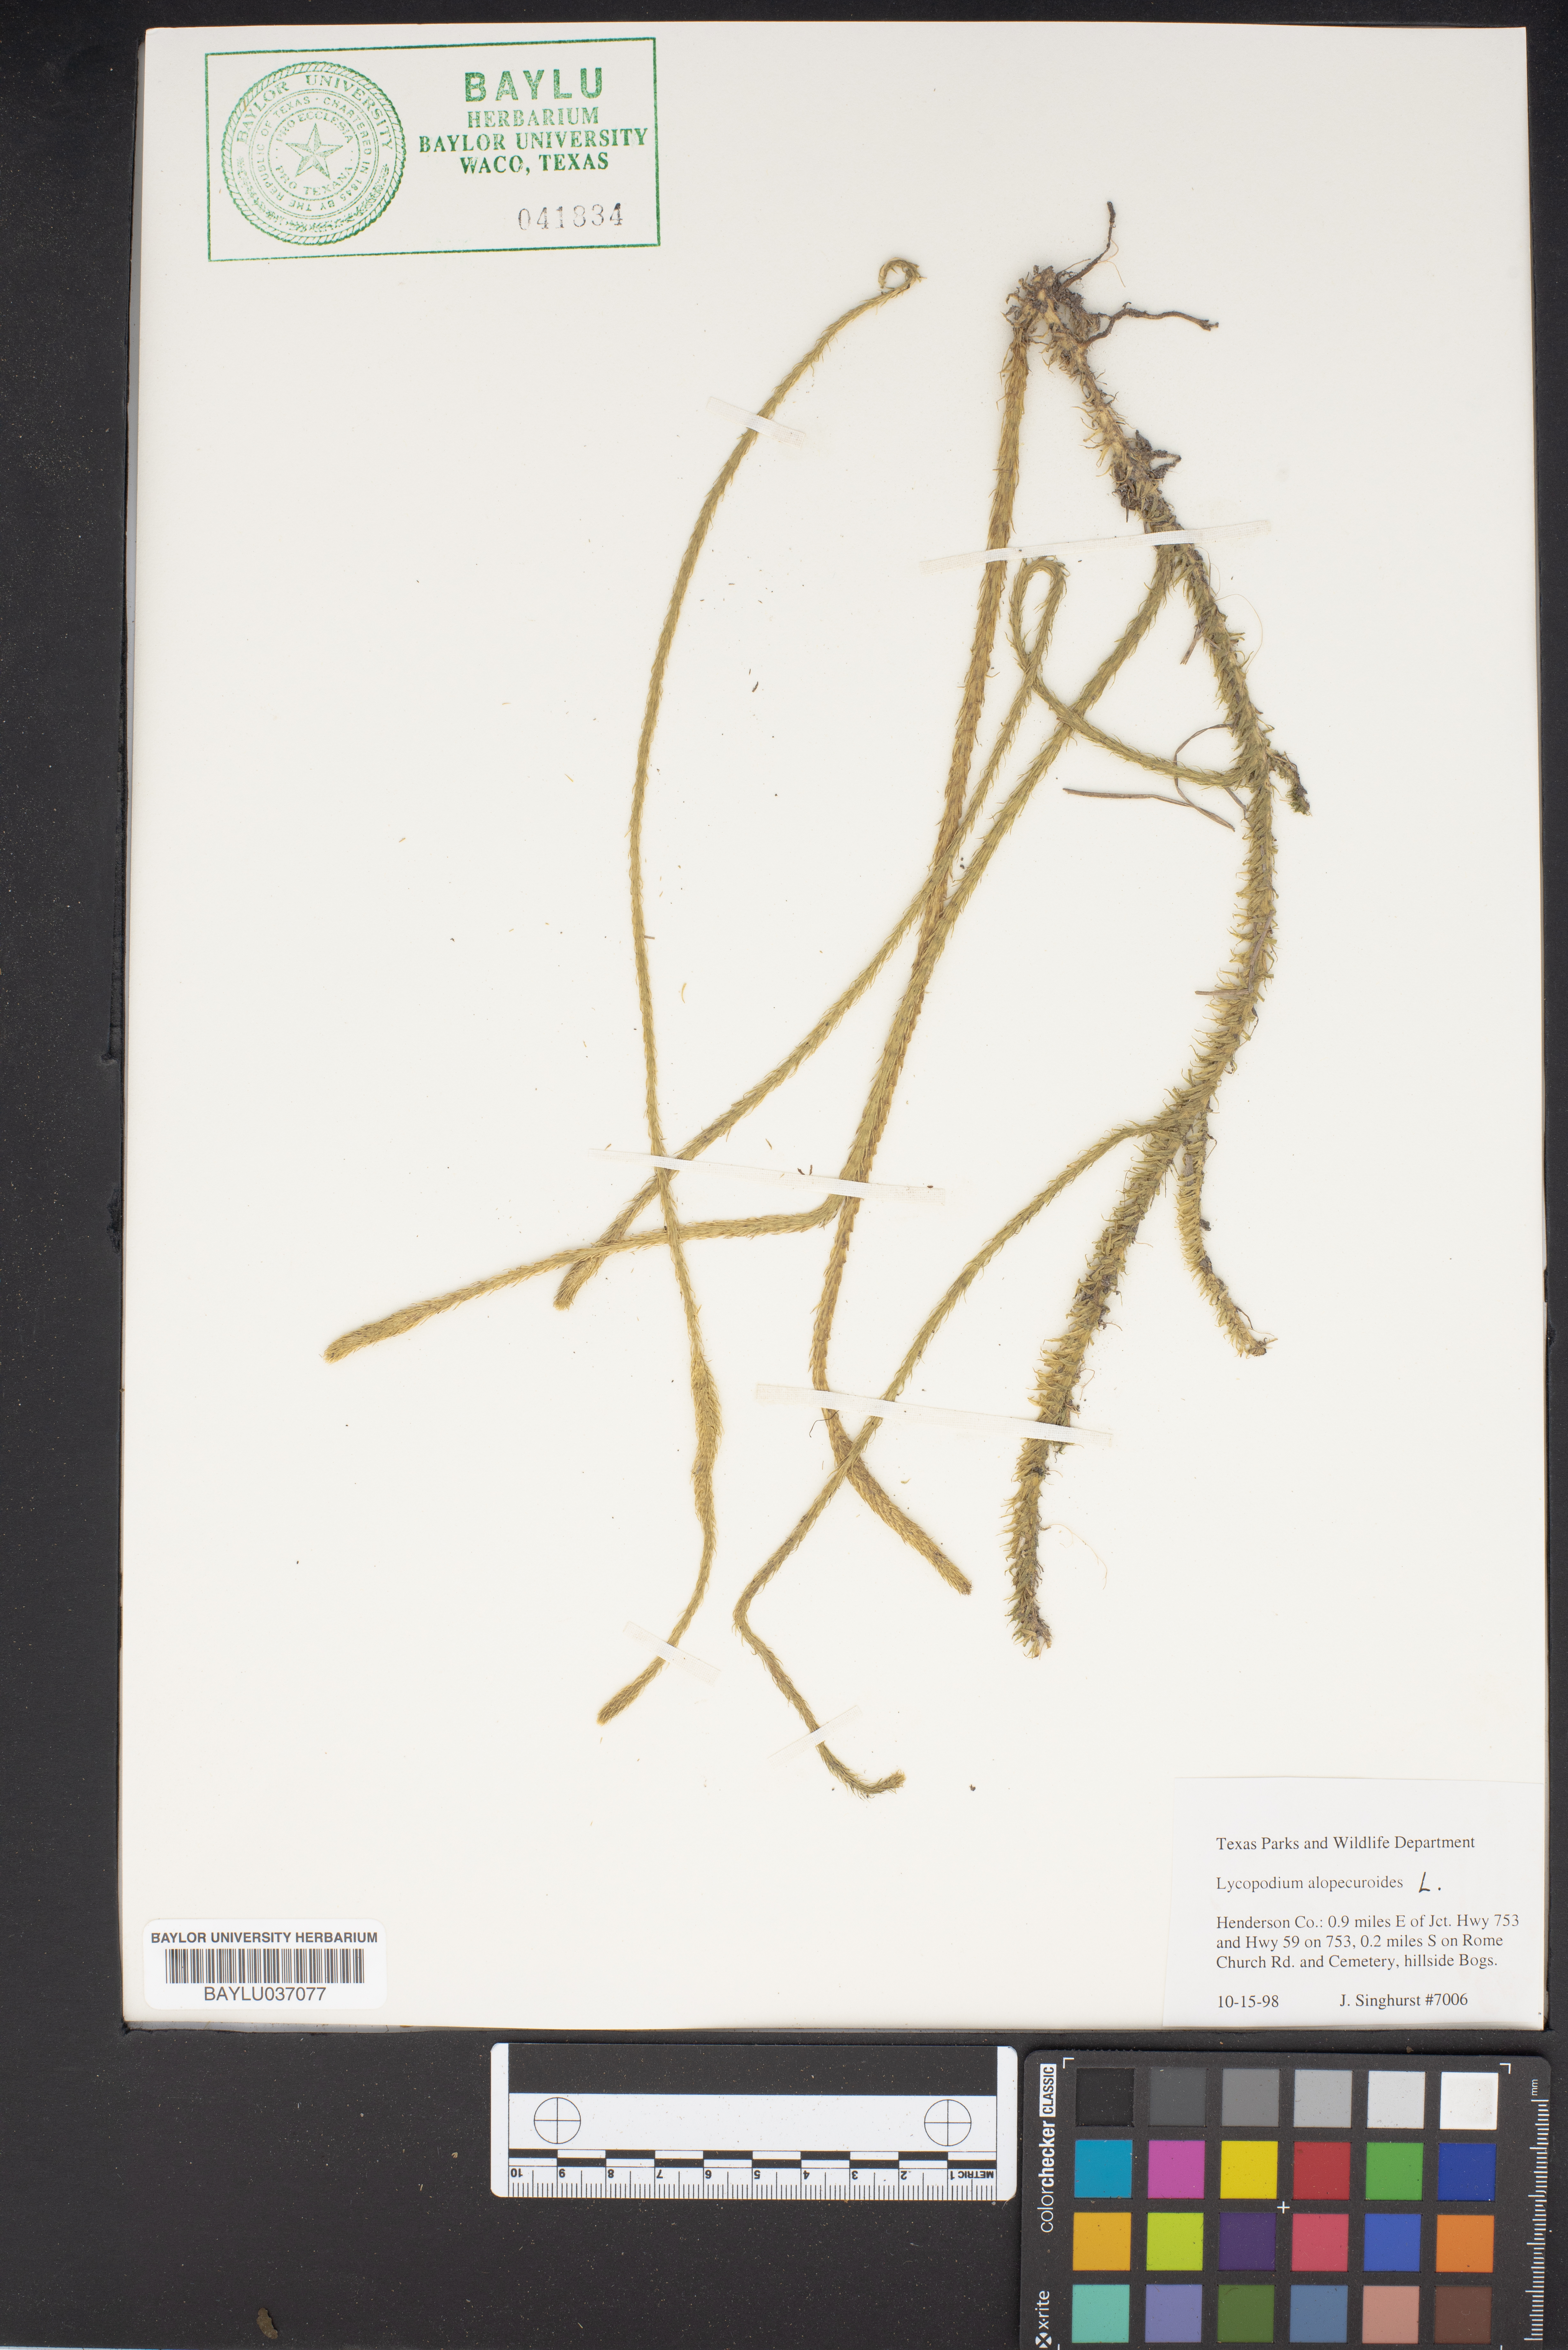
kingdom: Plantae
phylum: Tracheophyta
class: Lycopodiopsida
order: Lycopodiales
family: Lycopodiaceae
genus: Lycopodiella
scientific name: Lycopodiella alopecuroides
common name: Foxtail clubmoss
